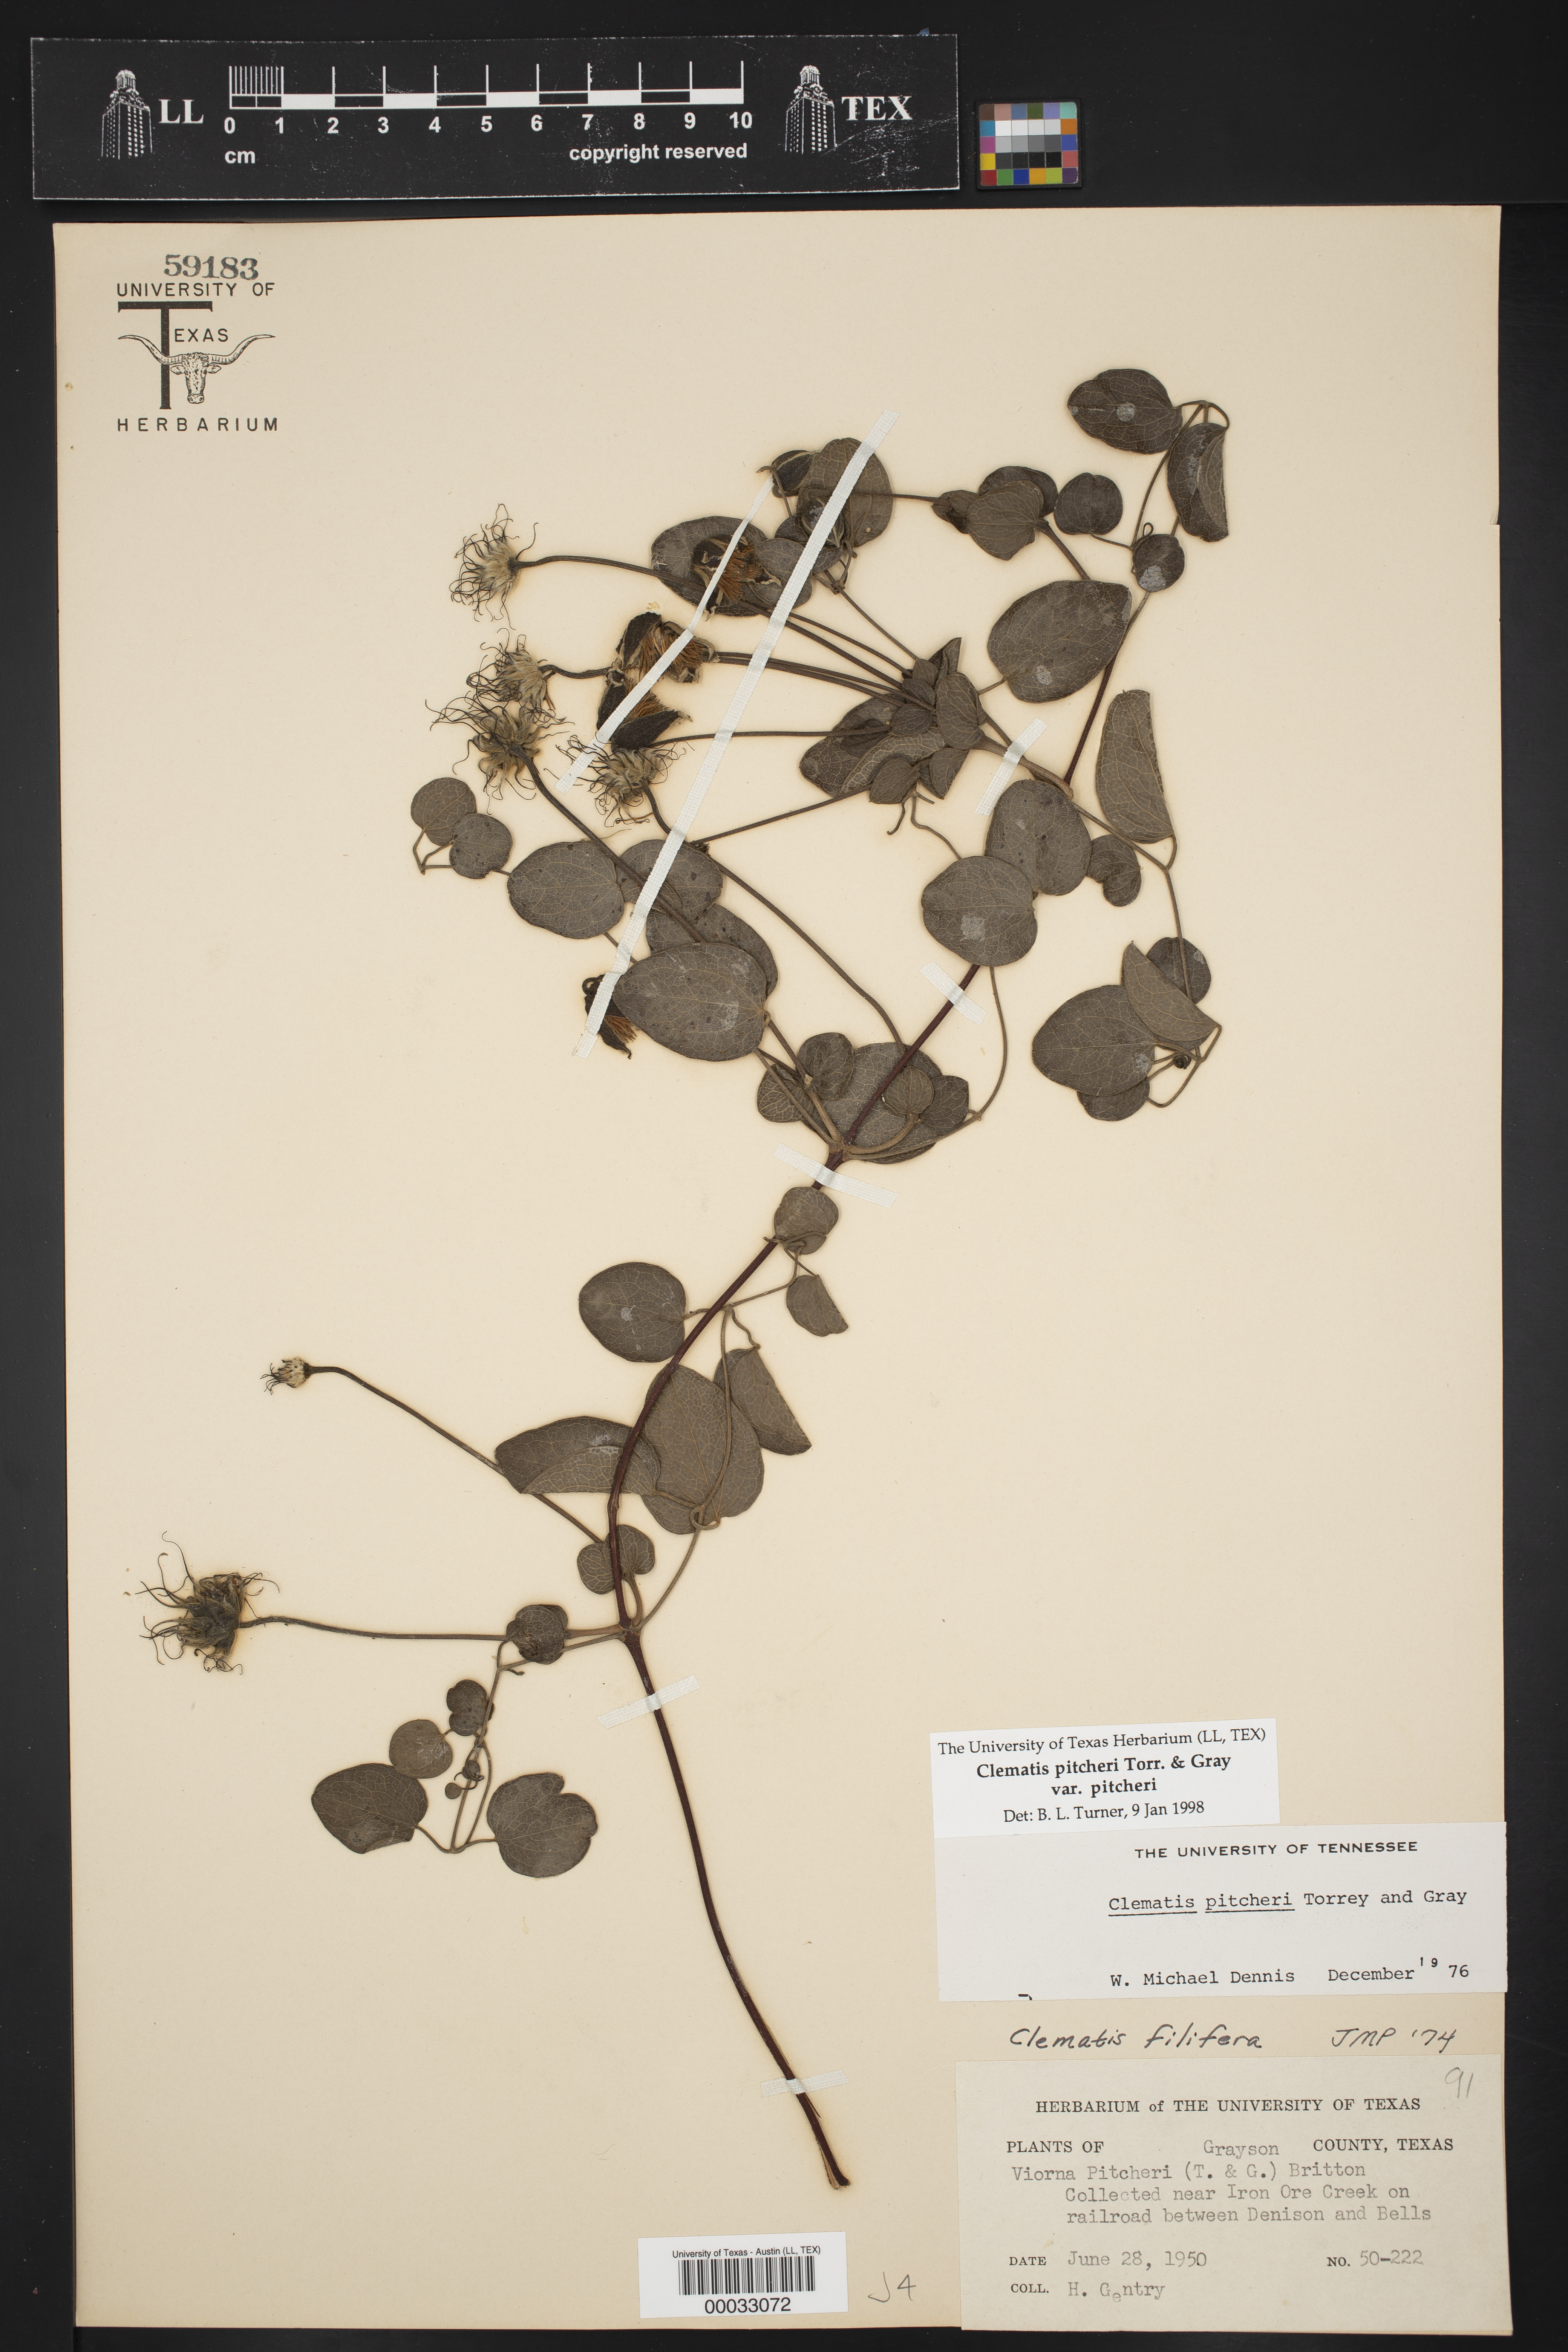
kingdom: Plantae
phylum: Tracheophyta
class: Magnoliopsida
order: Ranunculales
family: Ranunculaceae
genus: Clematis
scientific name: Clematis pitcheri
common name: Bellflower clematis
